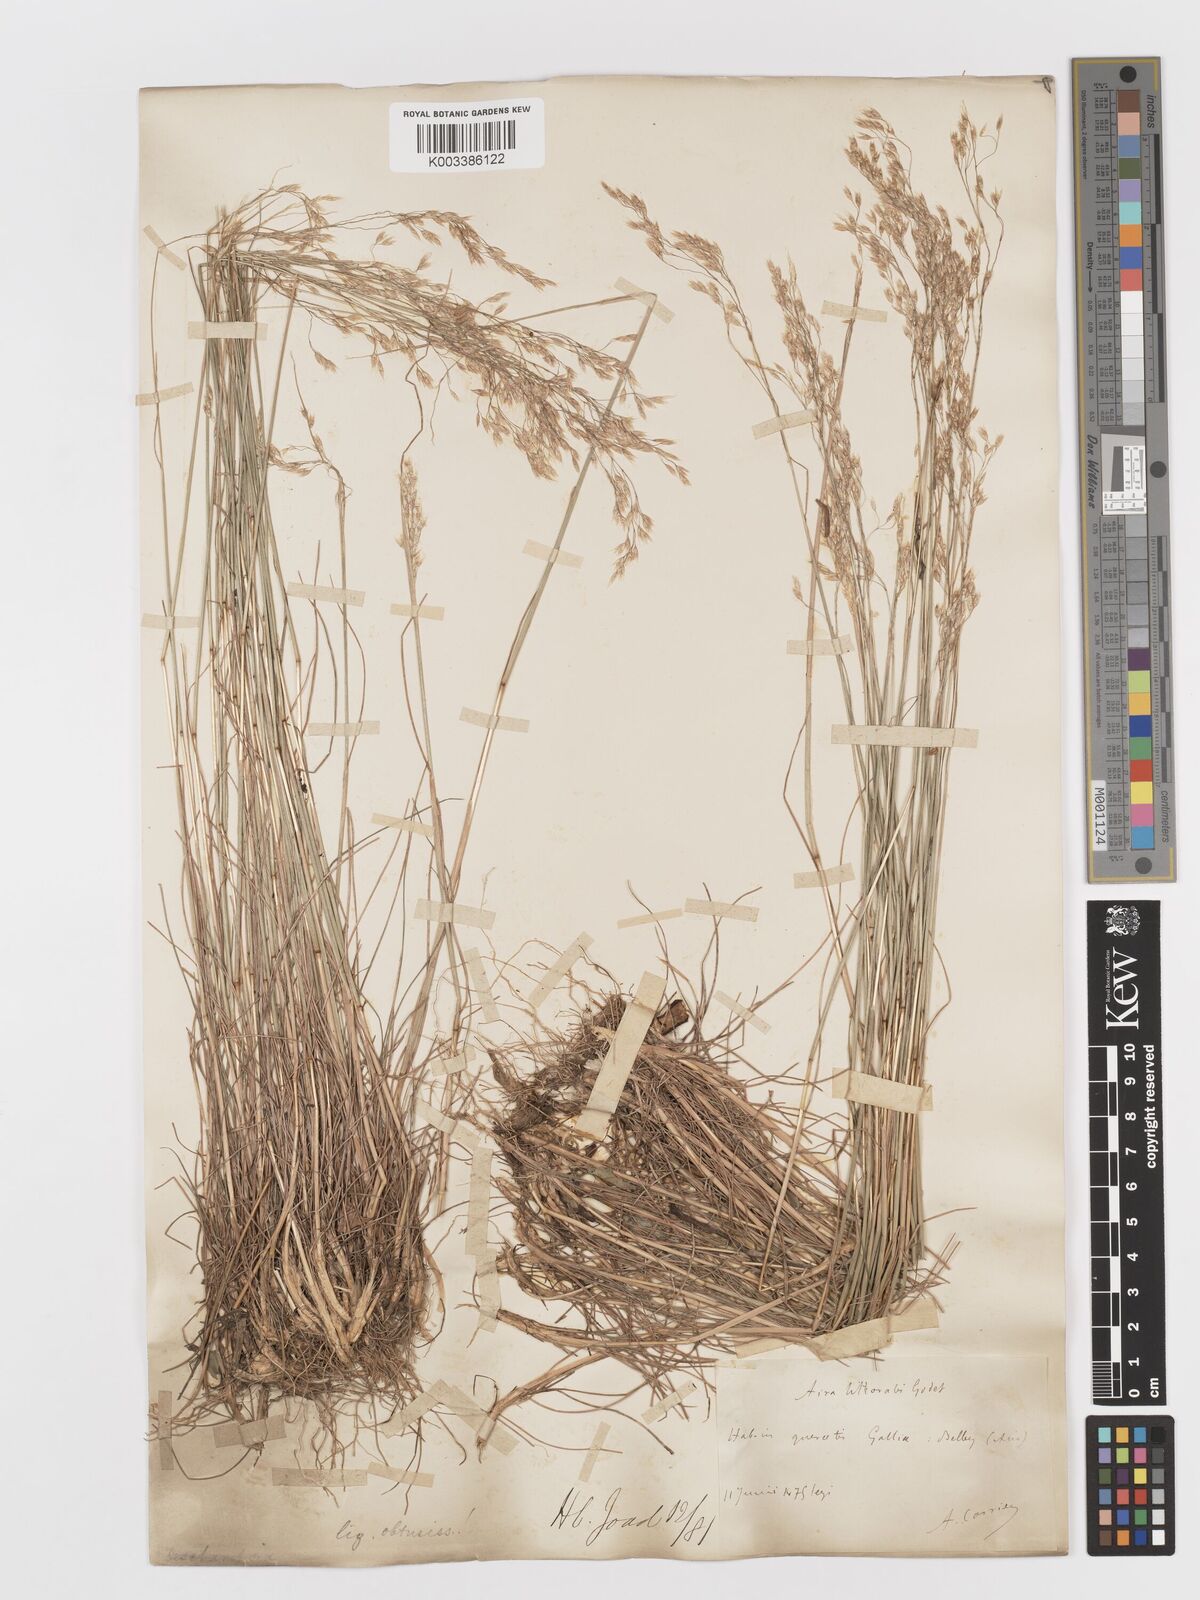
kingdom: Plantae
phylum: Tracheophyta
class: Liliopsida
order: Poales
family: Poaceae
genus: Avenella
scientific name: Avenella flexuosa
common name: Wavy hairgrass
